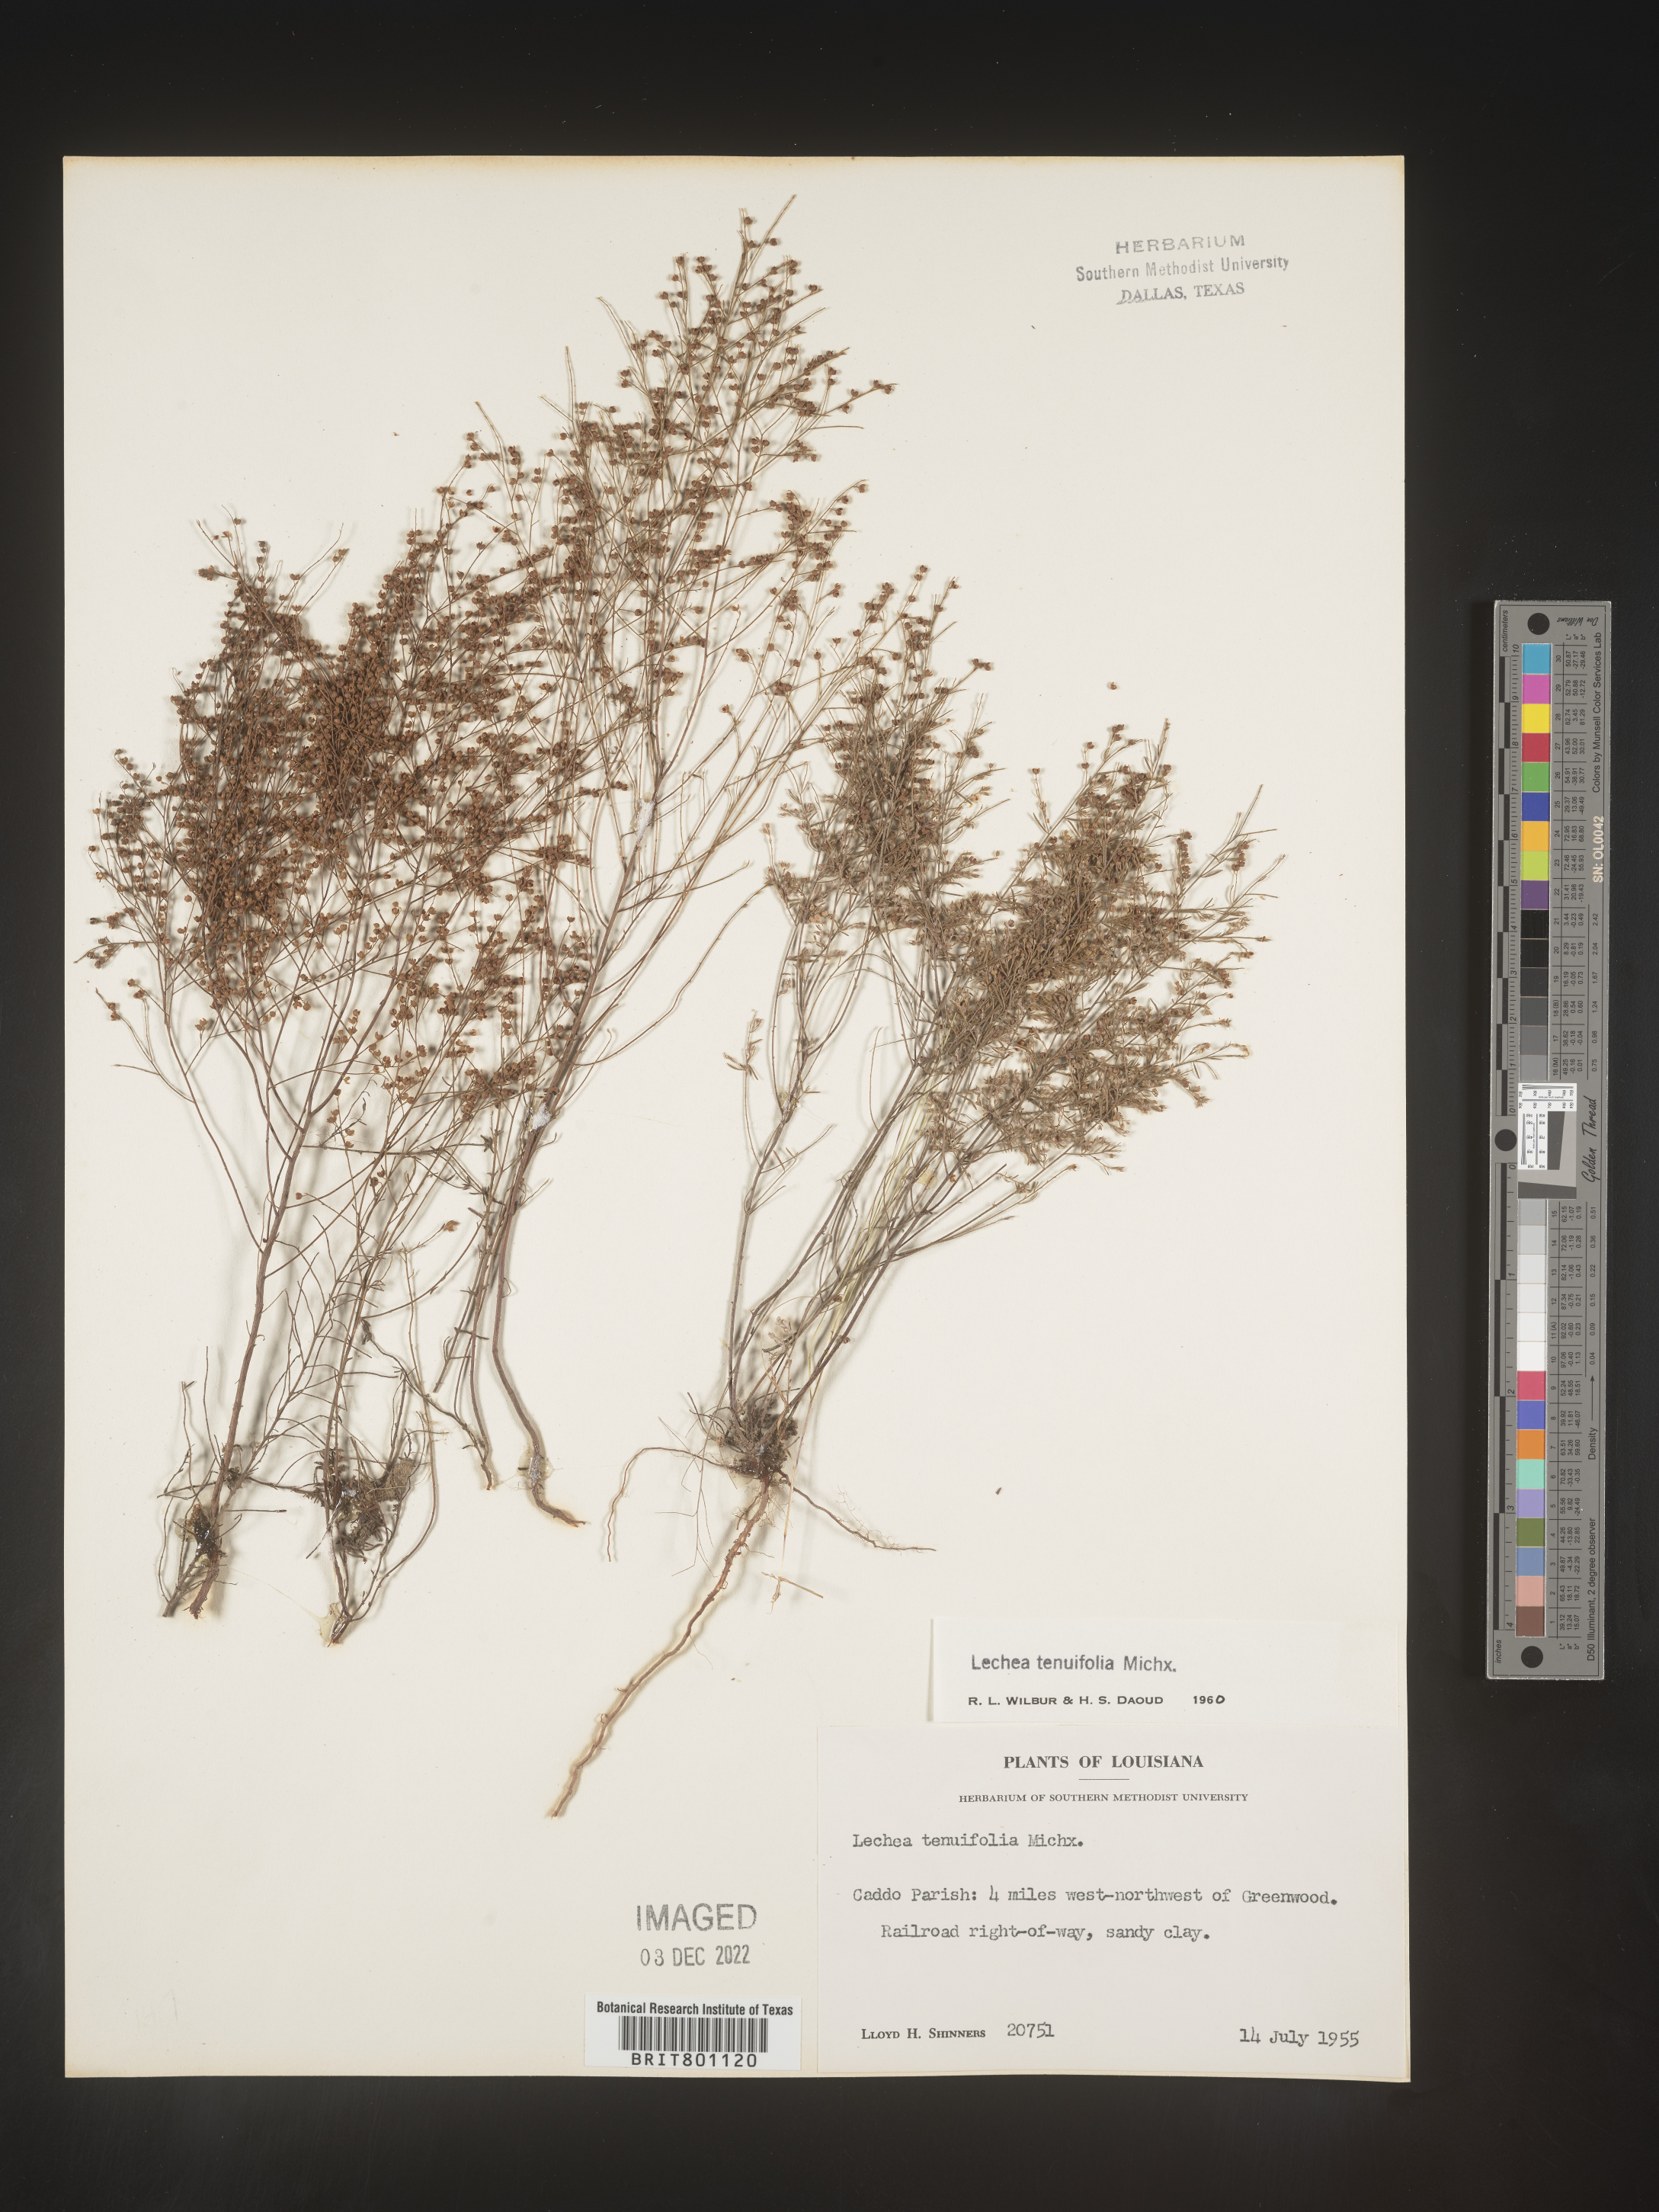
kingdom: Plantae
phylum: Tracheophyta
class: Magnoliopsida
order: Malvales
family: Cistaceae
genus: Lechea
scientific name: Lechea tenuifolia
